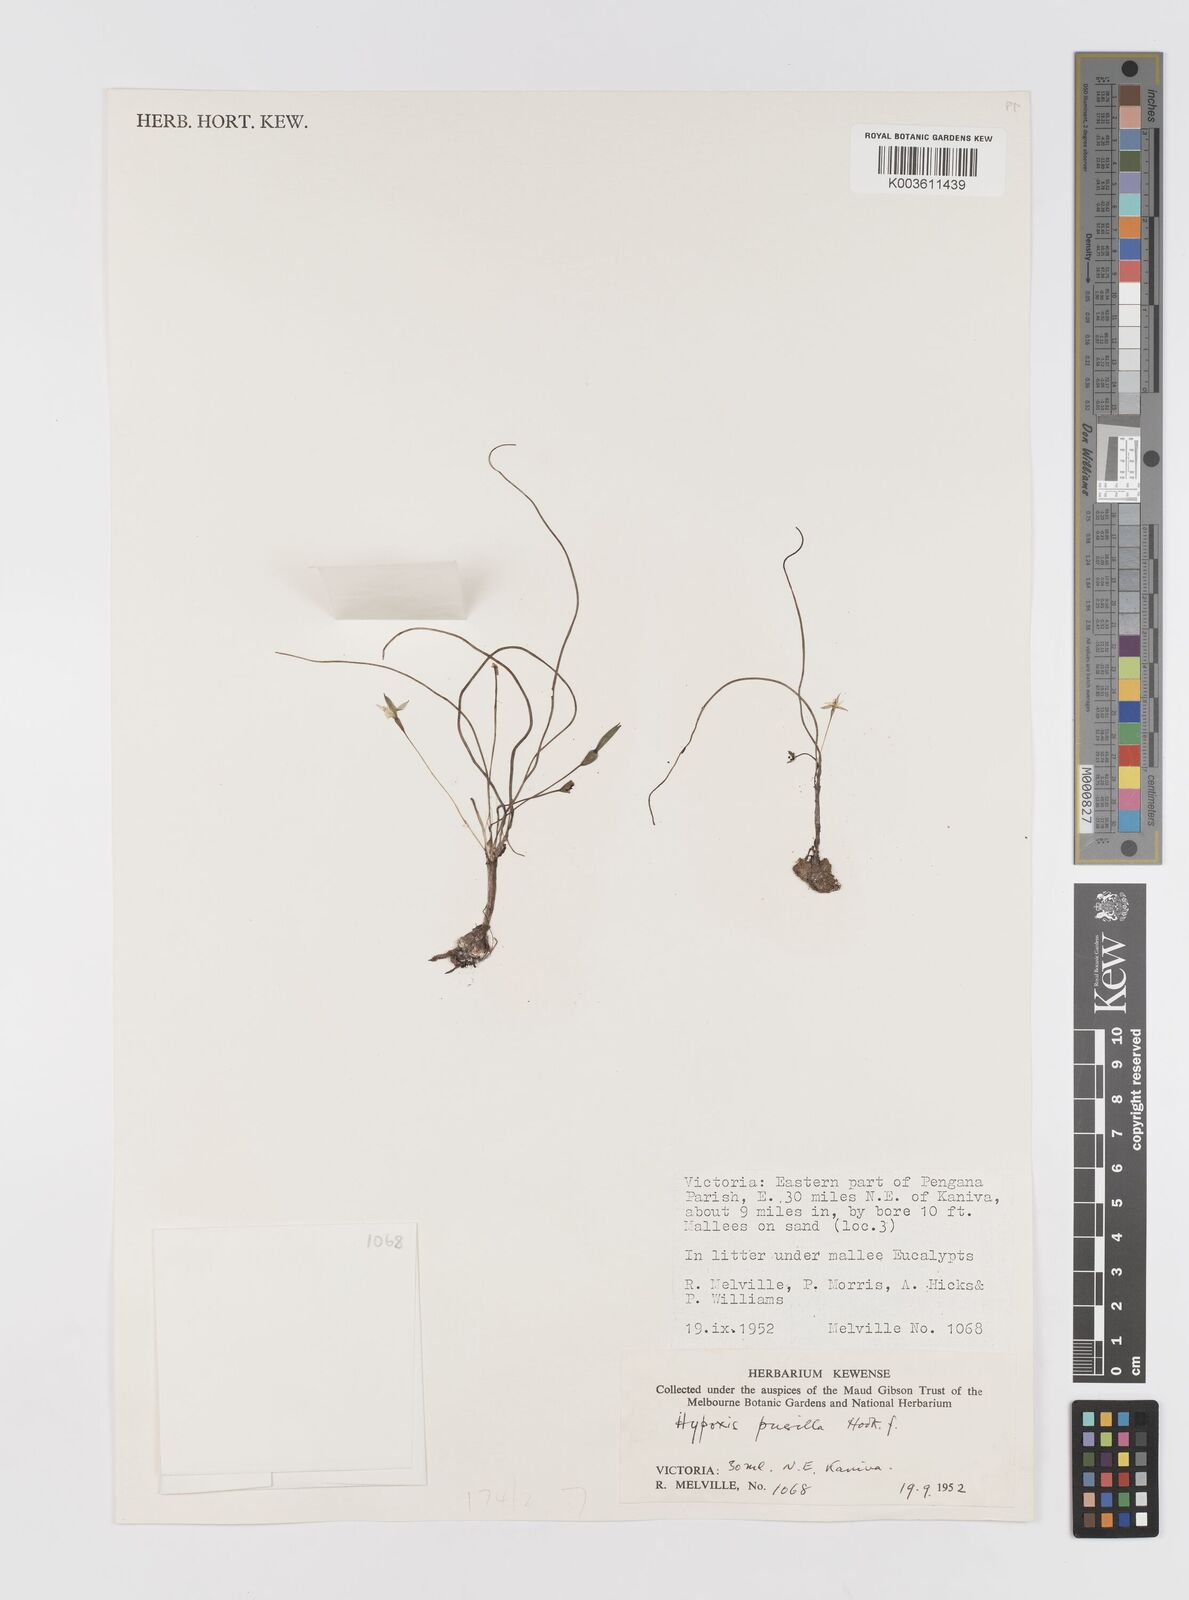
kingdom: Plantae
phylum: Tracheophyta
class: Liliopsida
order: Asparagales
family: Hypoxidaceae
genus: Pauridia
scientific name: Pauridia glabella
